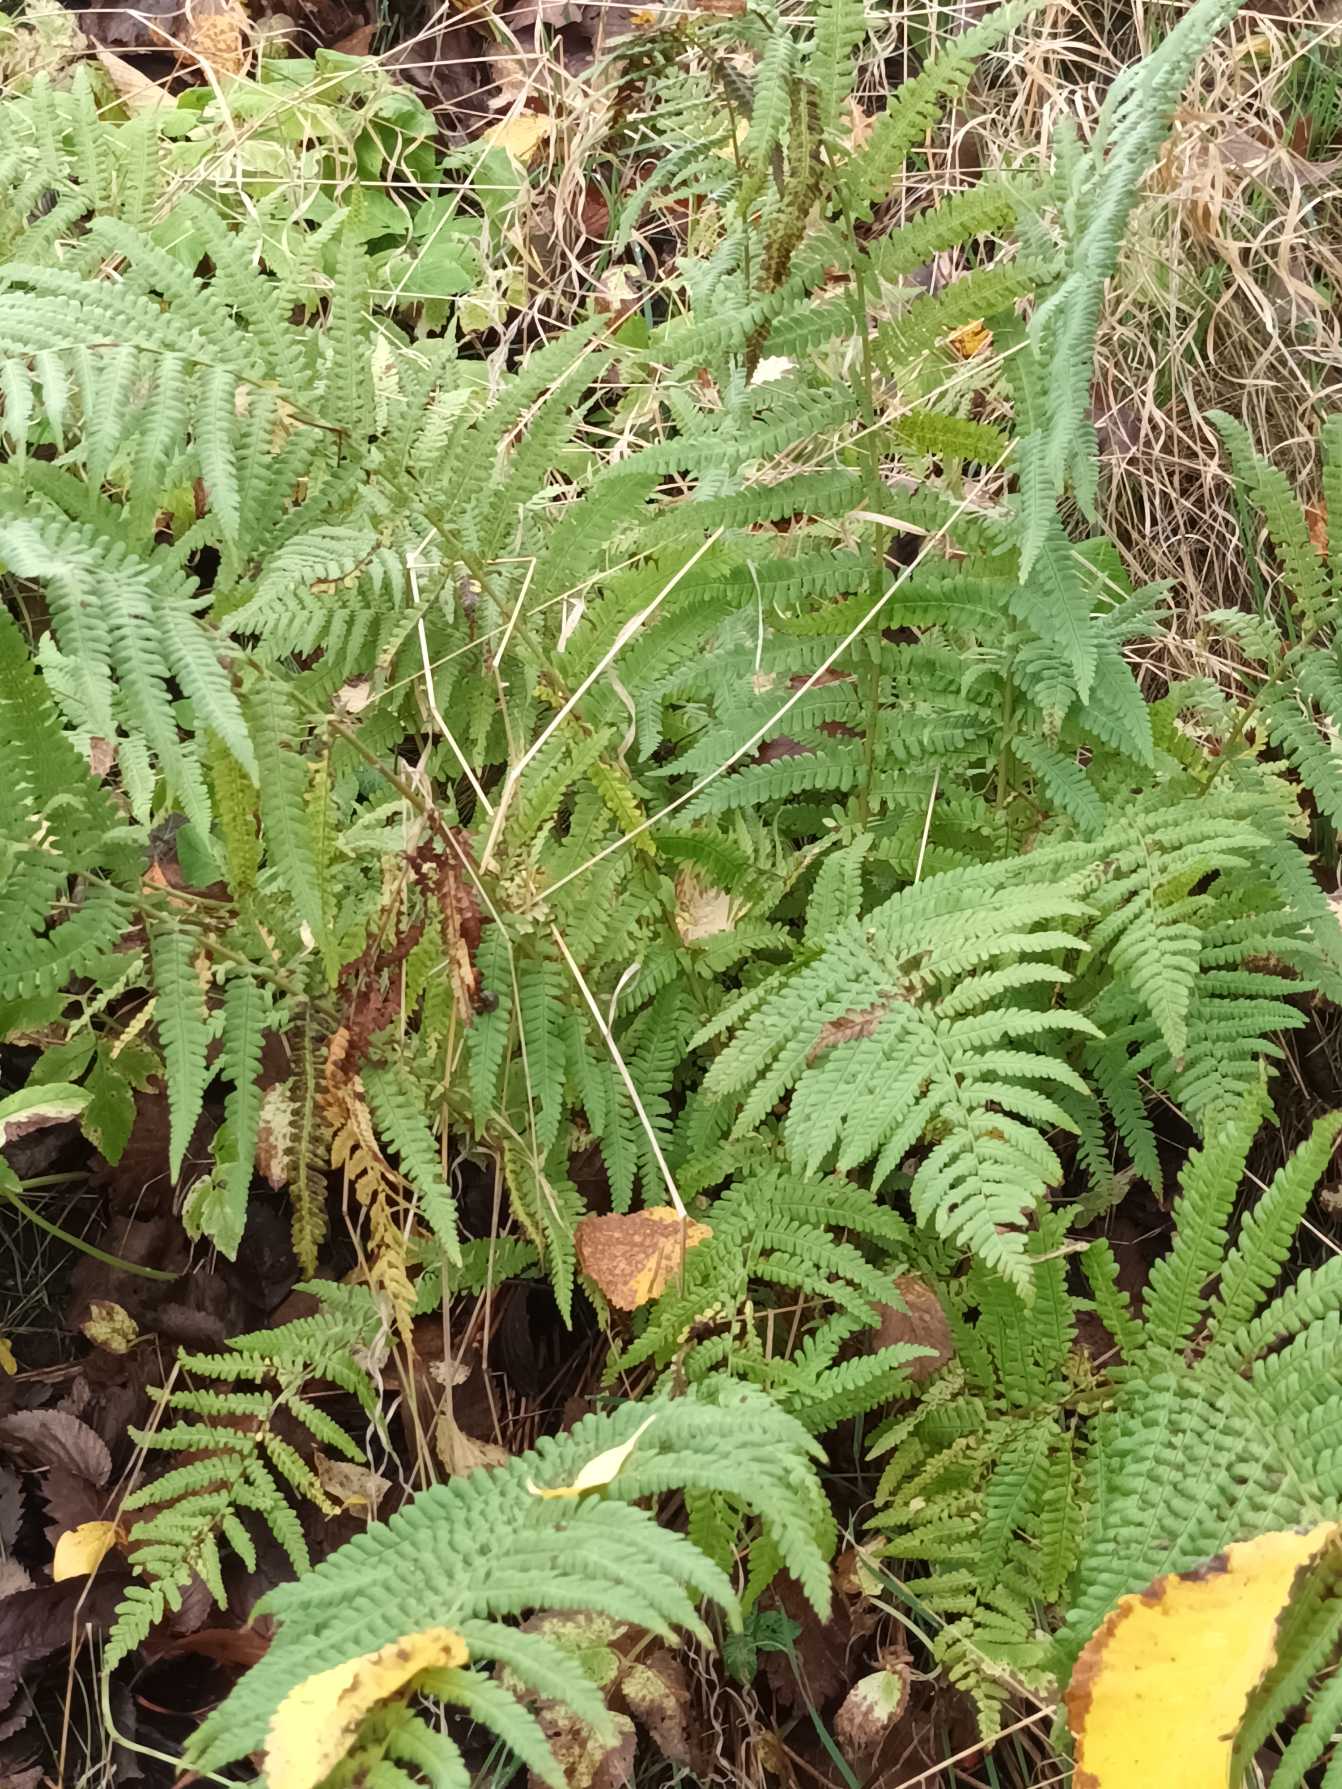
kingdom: Plantae
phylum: Tracheophyta
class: Polypodiopsida
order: Polypodiales
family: Dryopteridaceae
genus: Dryopteris
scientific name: Dryopteris filix-mas
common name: Almindelig mangeløv
